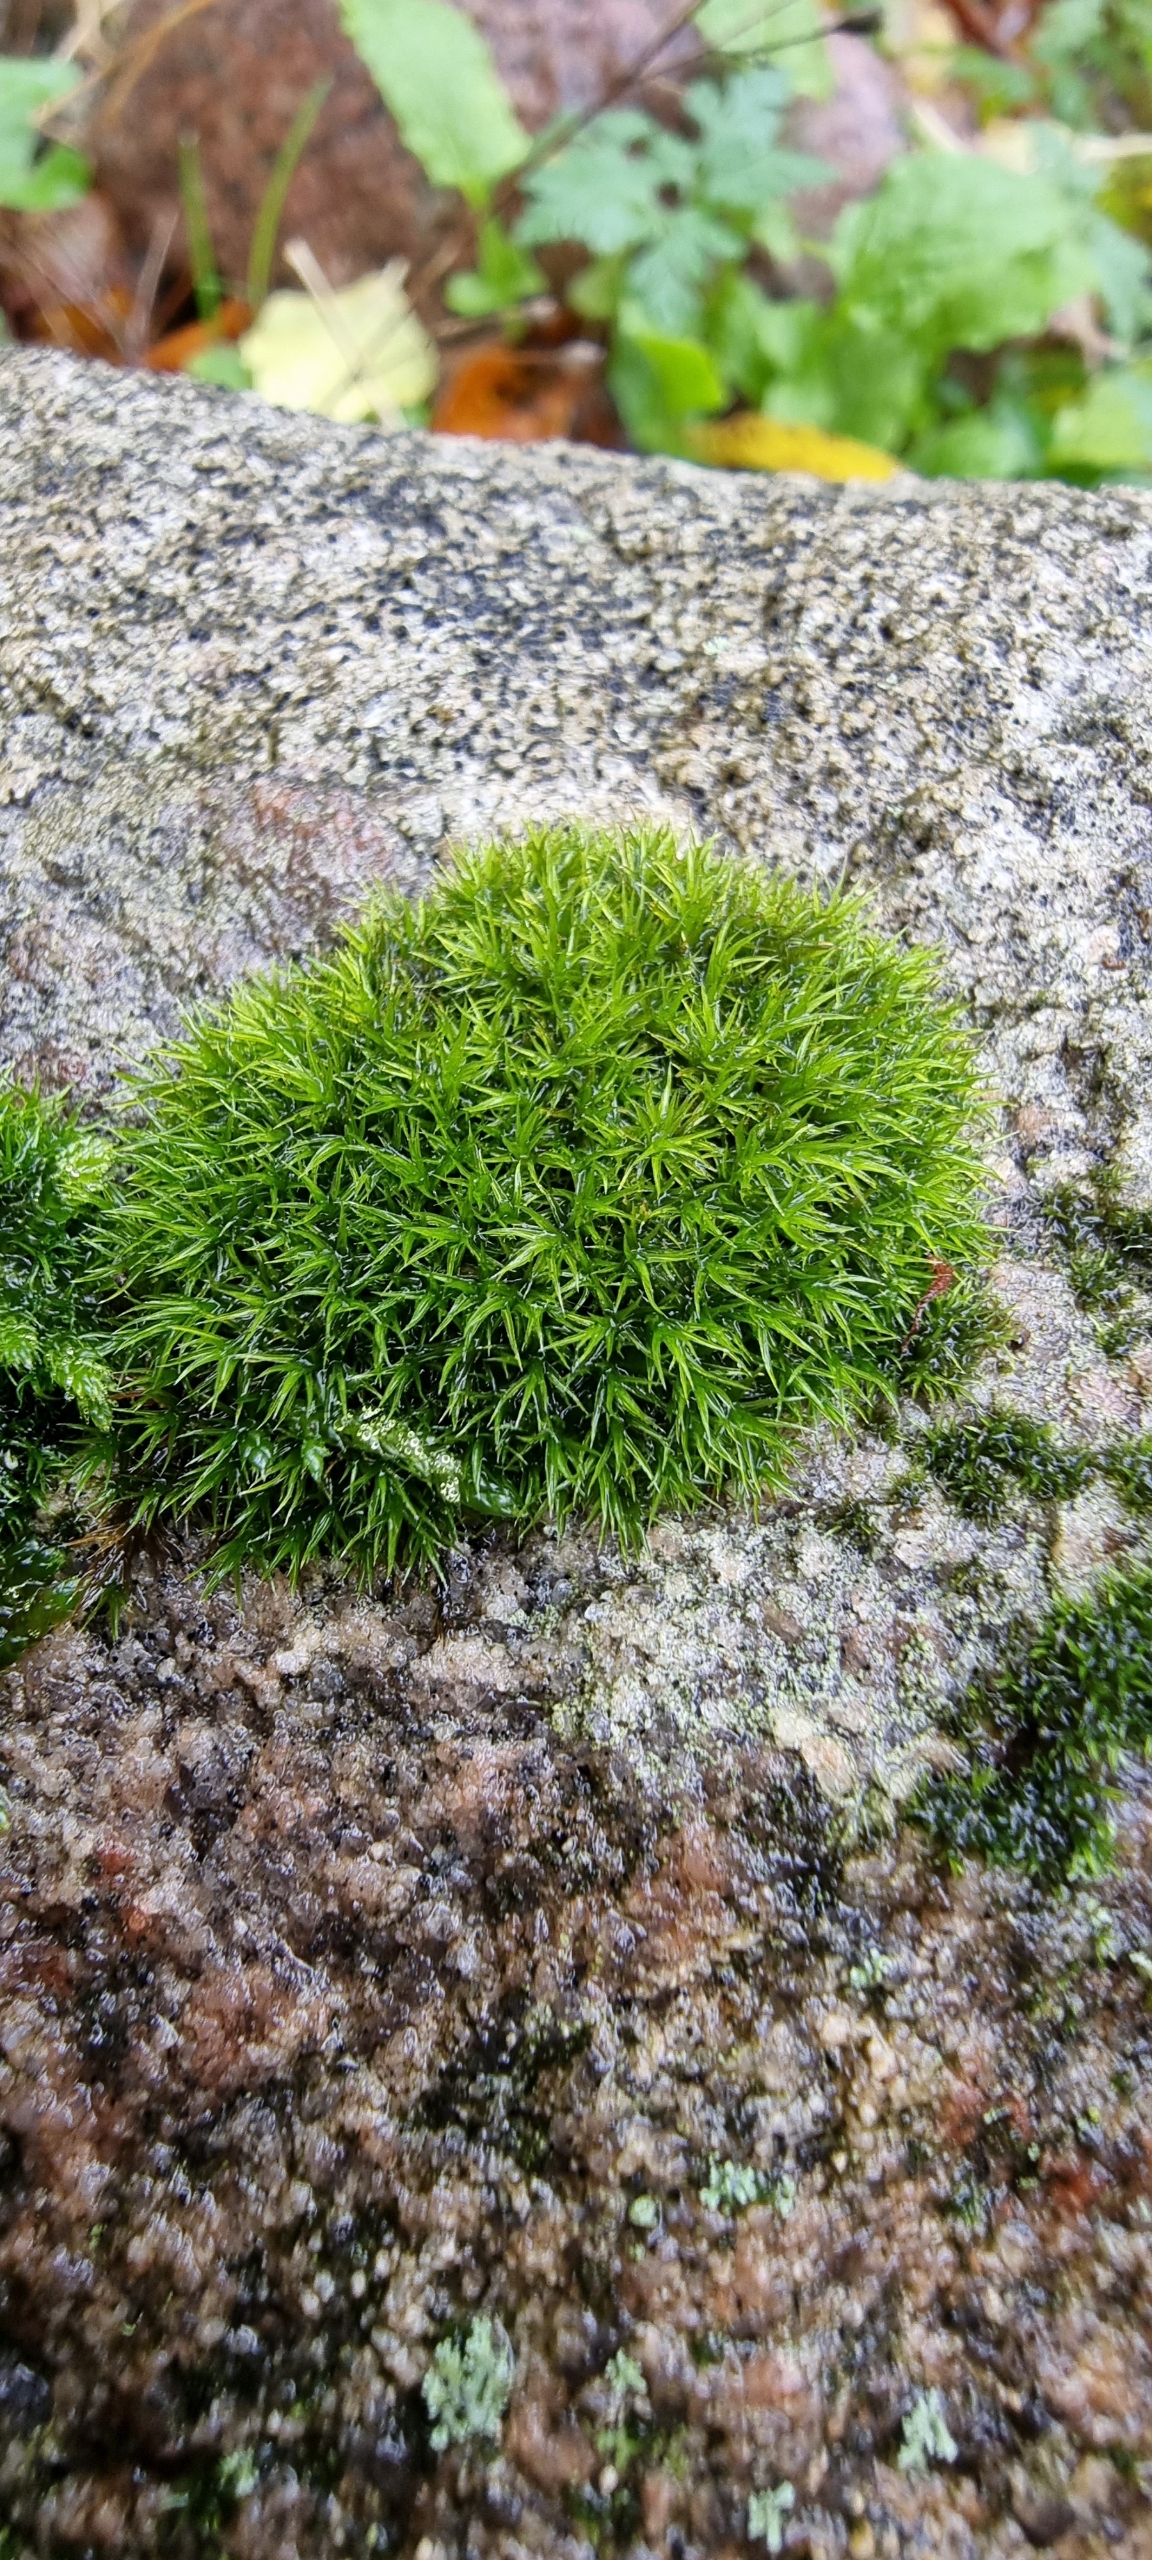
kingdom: Plantae
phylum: Bryophyta
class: Bryopsida
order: Grimmiales
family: Grimmiaceae
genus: Grimmia
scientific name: Grimmia
